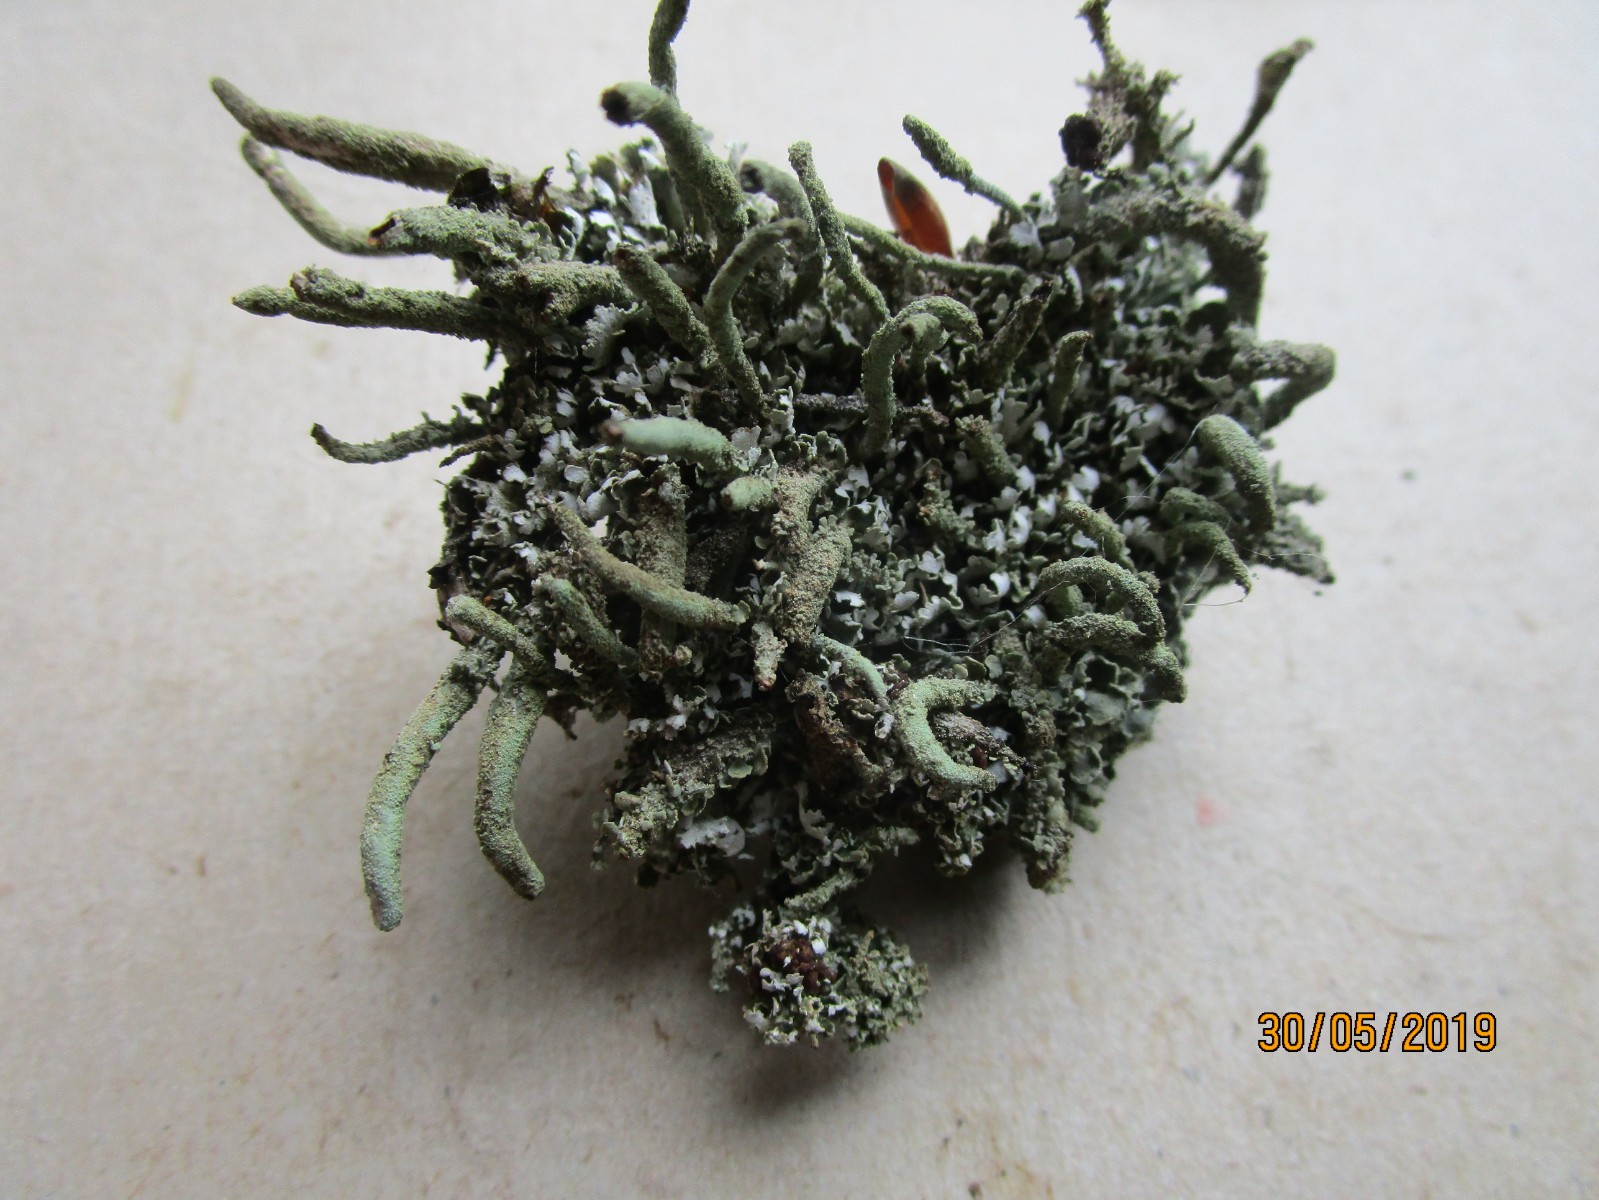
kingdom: Fungi
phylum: Ascomycota
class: Lecanoromycetes
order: Lecanorales
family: Cladoniaceae
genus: Cladonia
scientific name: Cladonia
